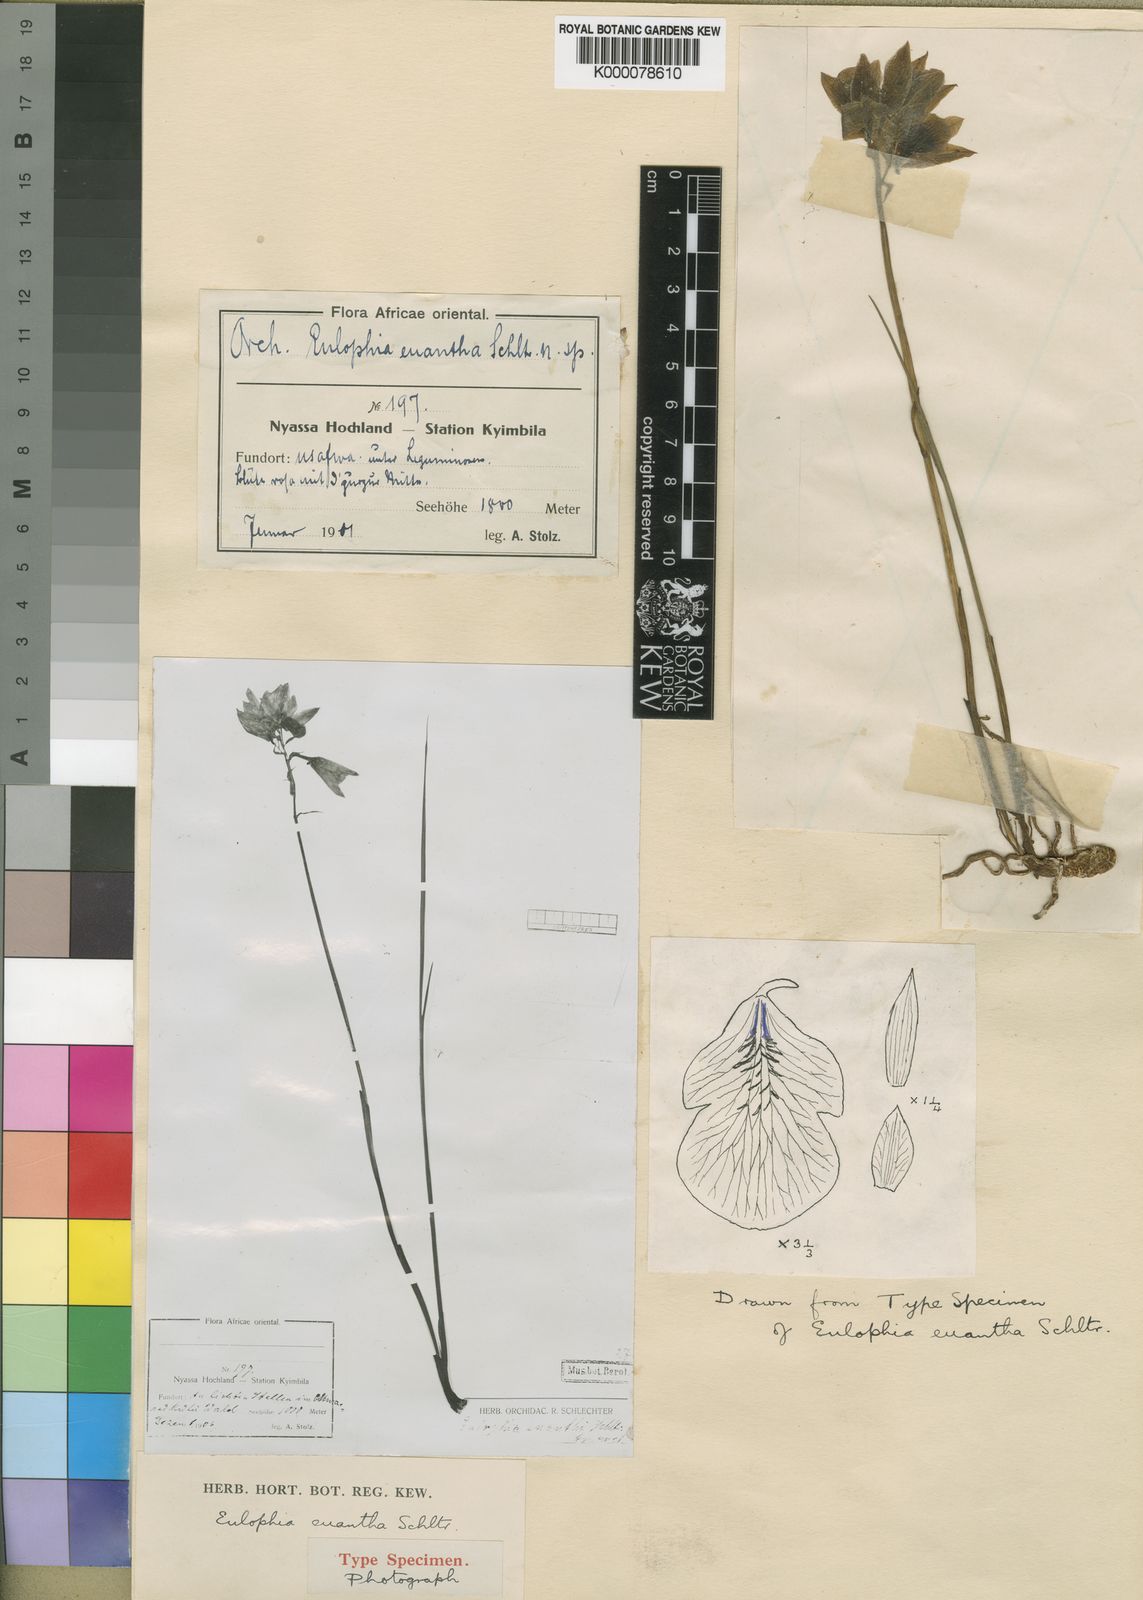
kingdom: Plantae
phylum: Tracheophyta
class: Liliopsida
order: Asparagales
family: Orchidaceae
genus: Eulophia
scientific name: Eulophia euantha
